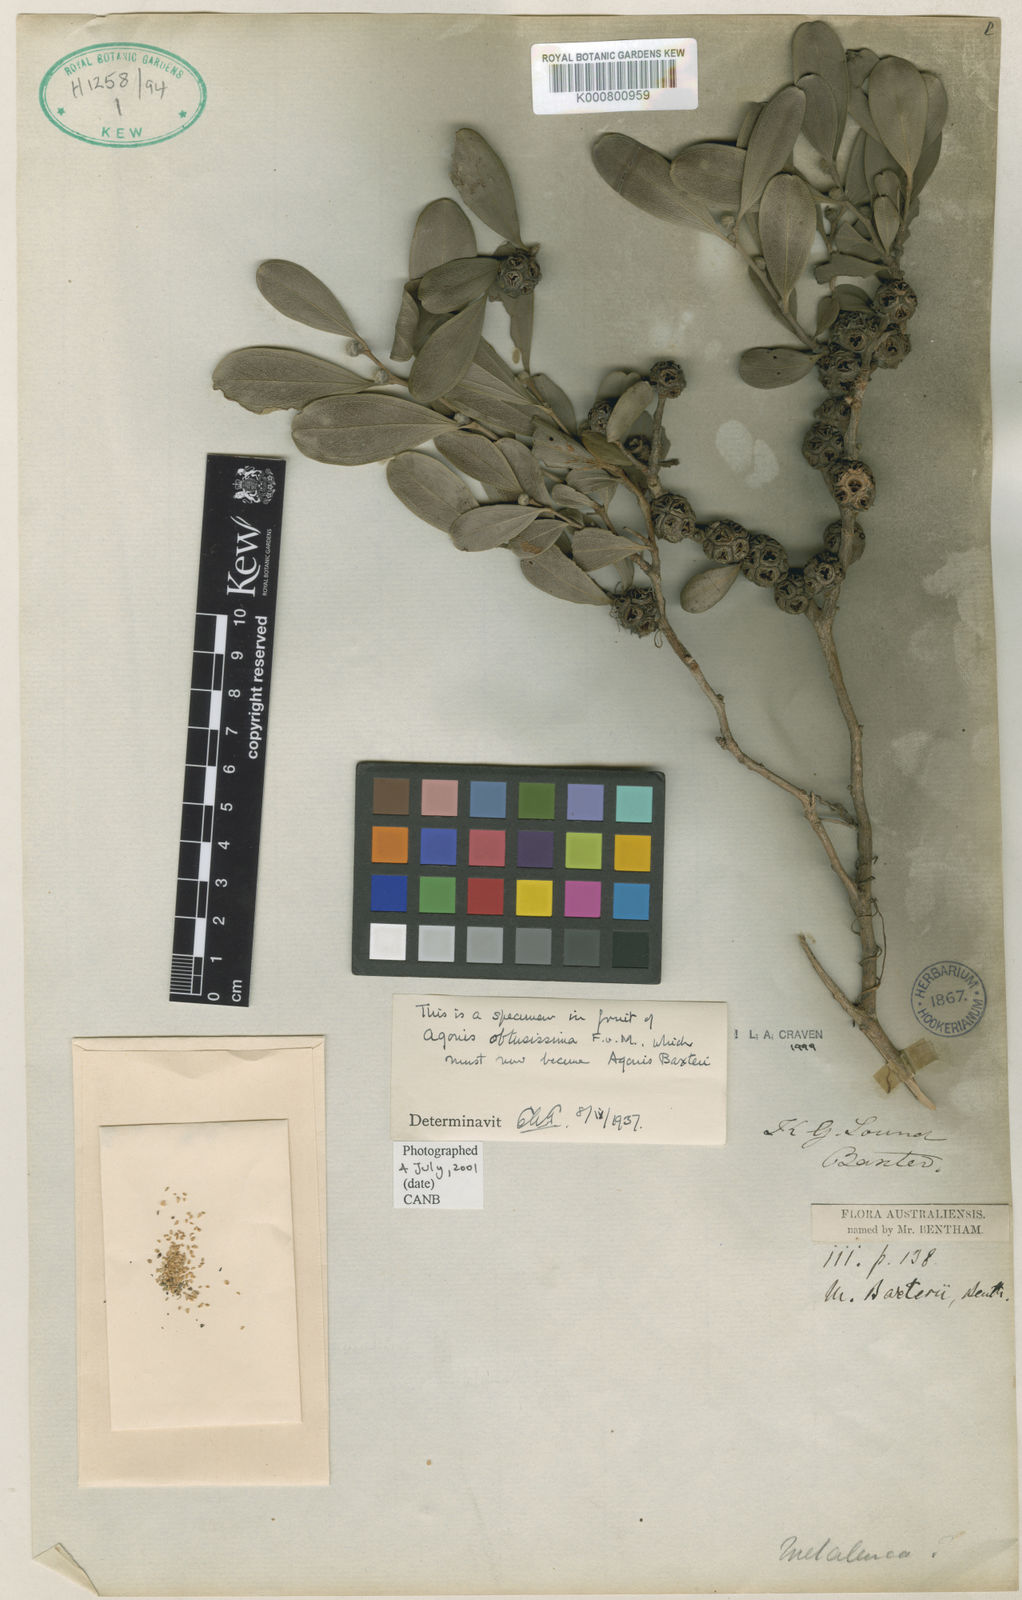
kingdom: Plantae
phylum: Tracheophyta
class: Magnoliopsida
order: Myrtales
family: Myrtaceae
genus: Agonis
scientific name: Agonis baxteri
